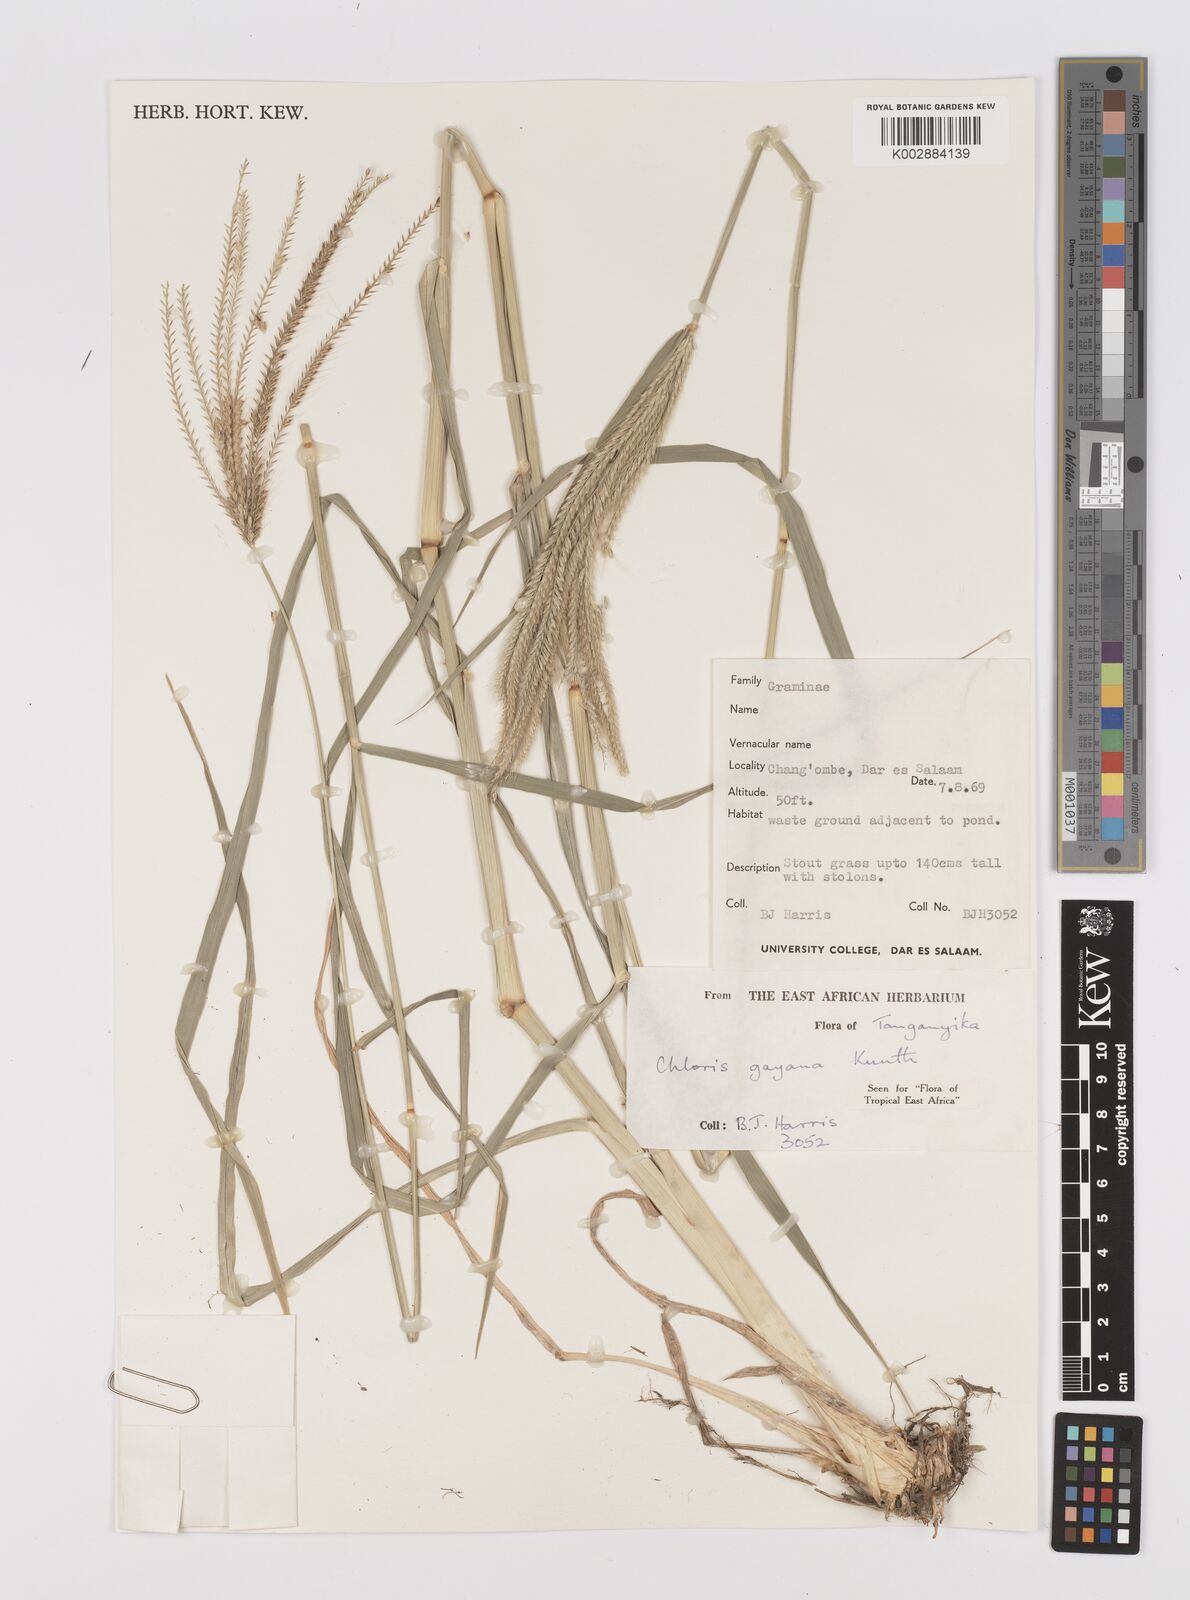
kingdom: Plantae
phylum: Tracheophyta
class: Liliopsida
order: Poales
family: Poaceae
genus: Chloris
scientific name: Chloris gayana
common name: Rhodes grass
